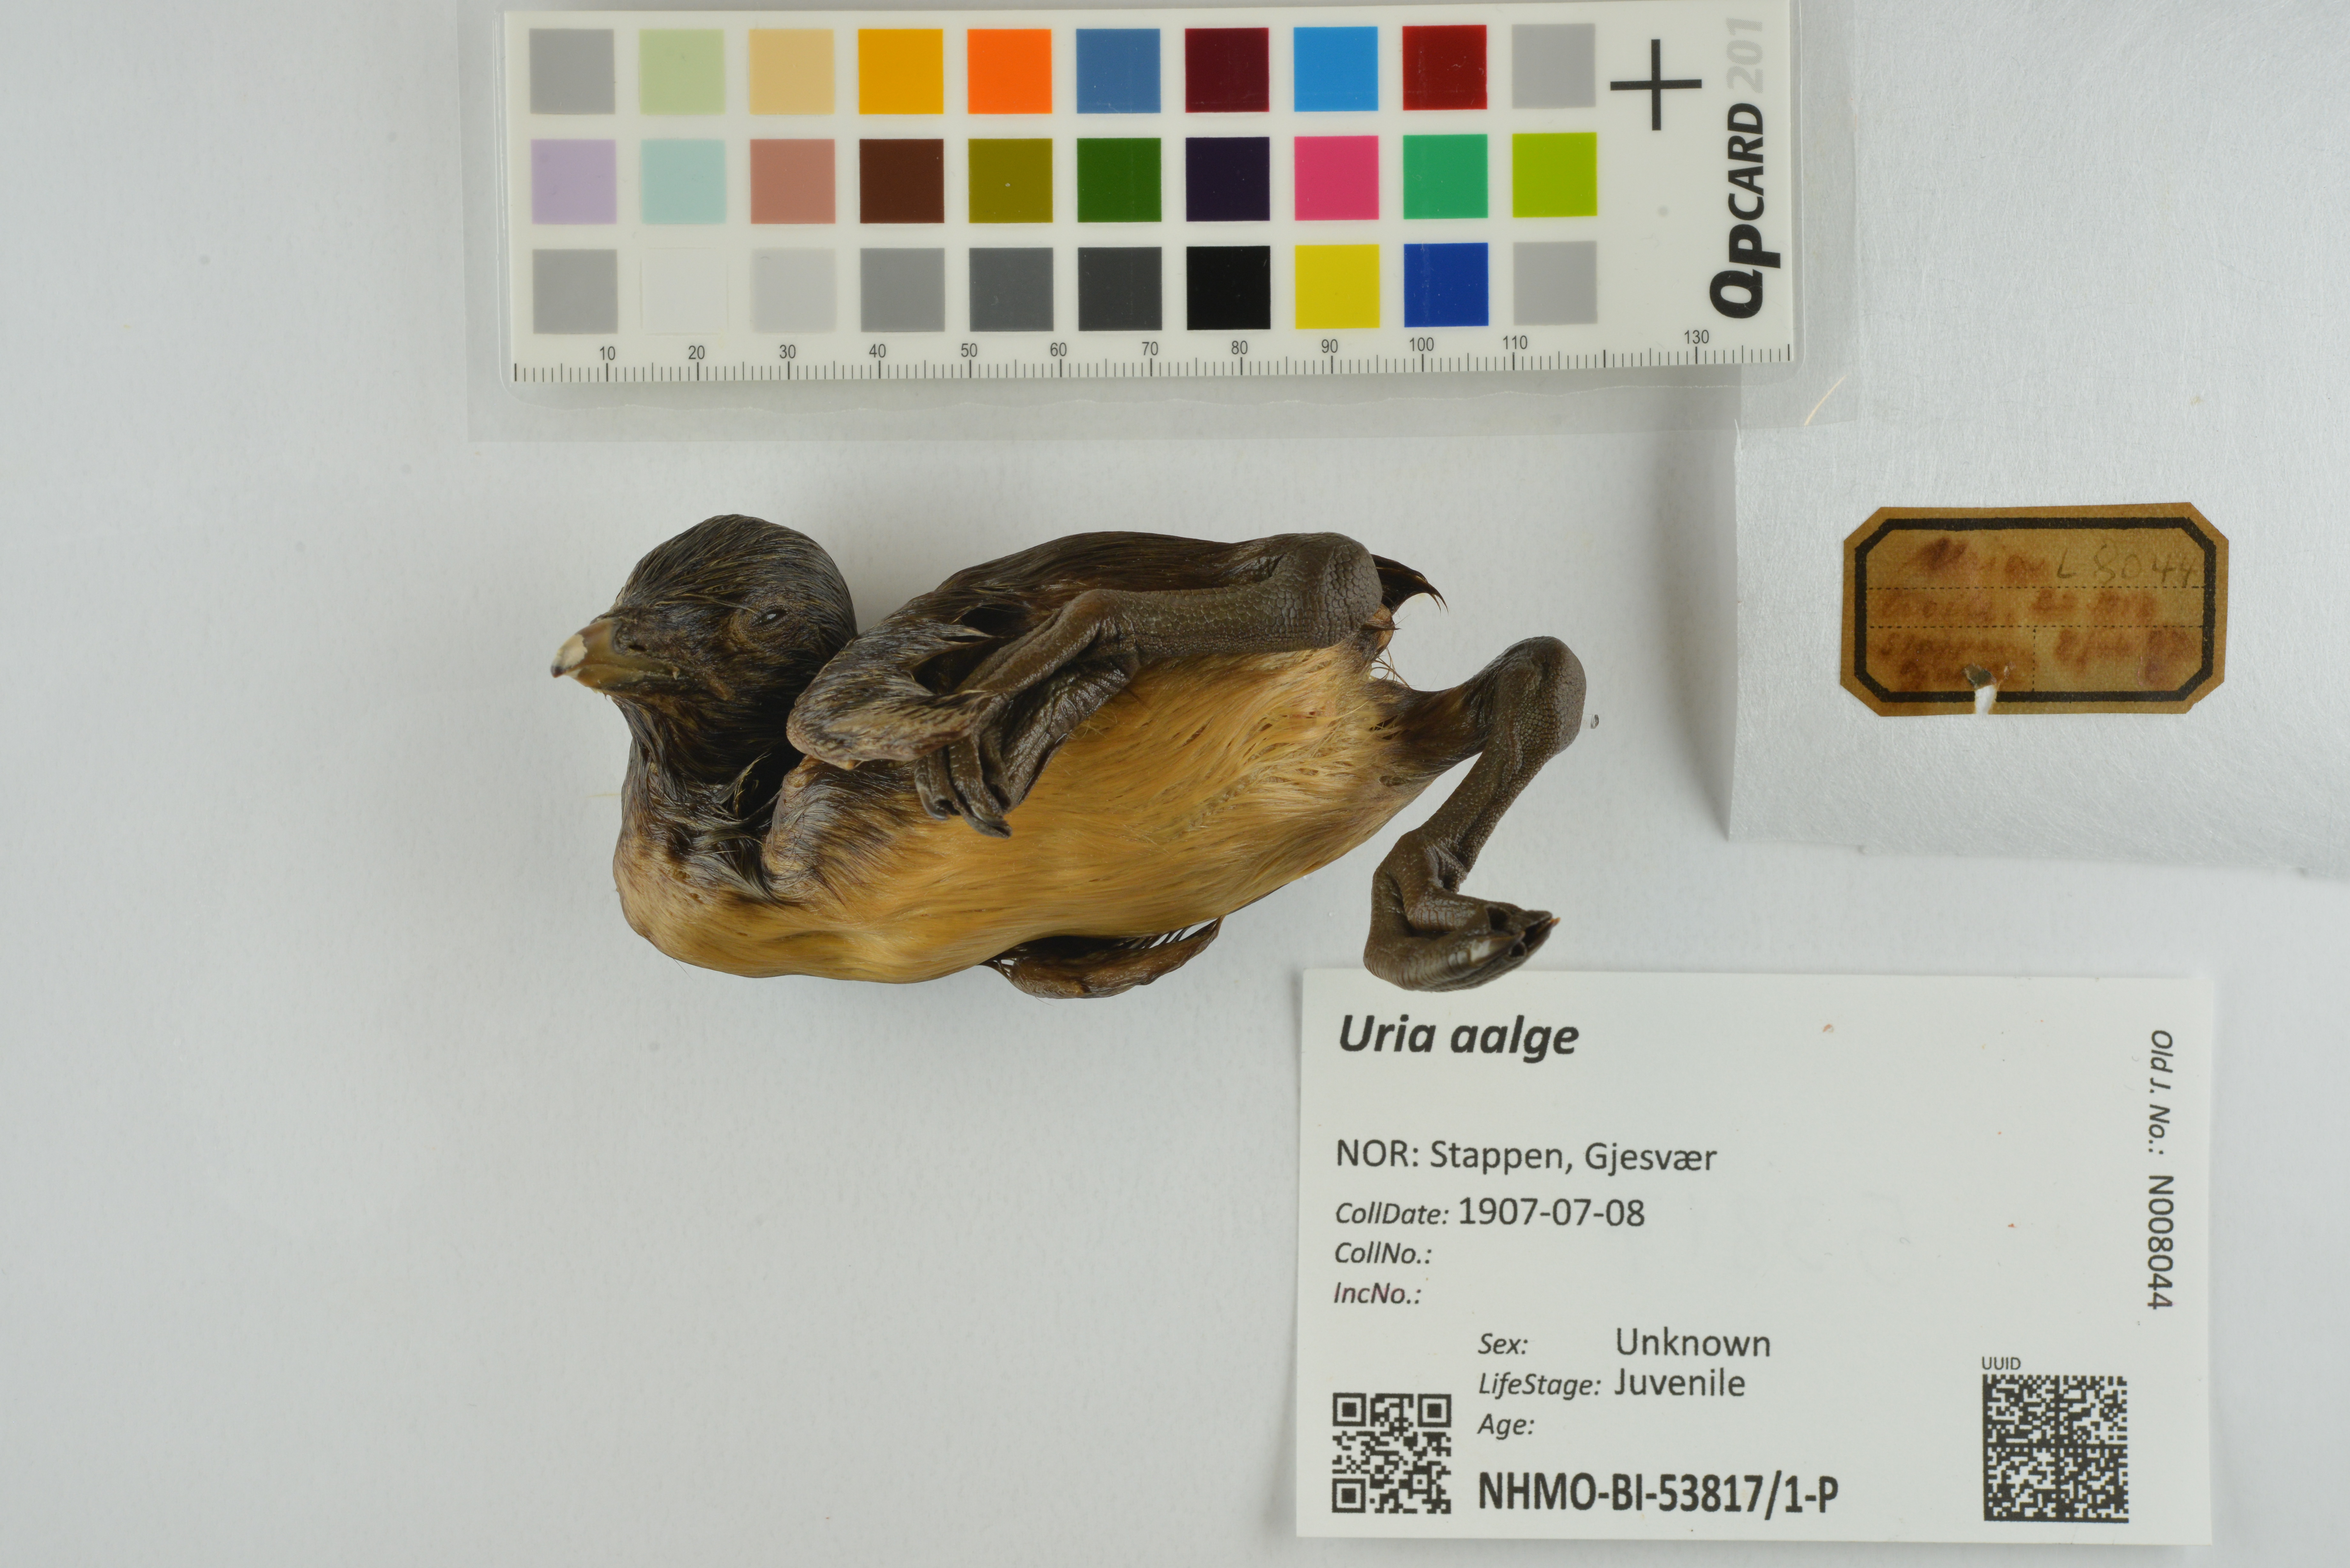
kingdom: Animalia
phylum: Chordata
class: Aves
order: Charadriiformes
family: Alcidae
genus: Uria
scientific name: Uria aalge
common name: Common murre
